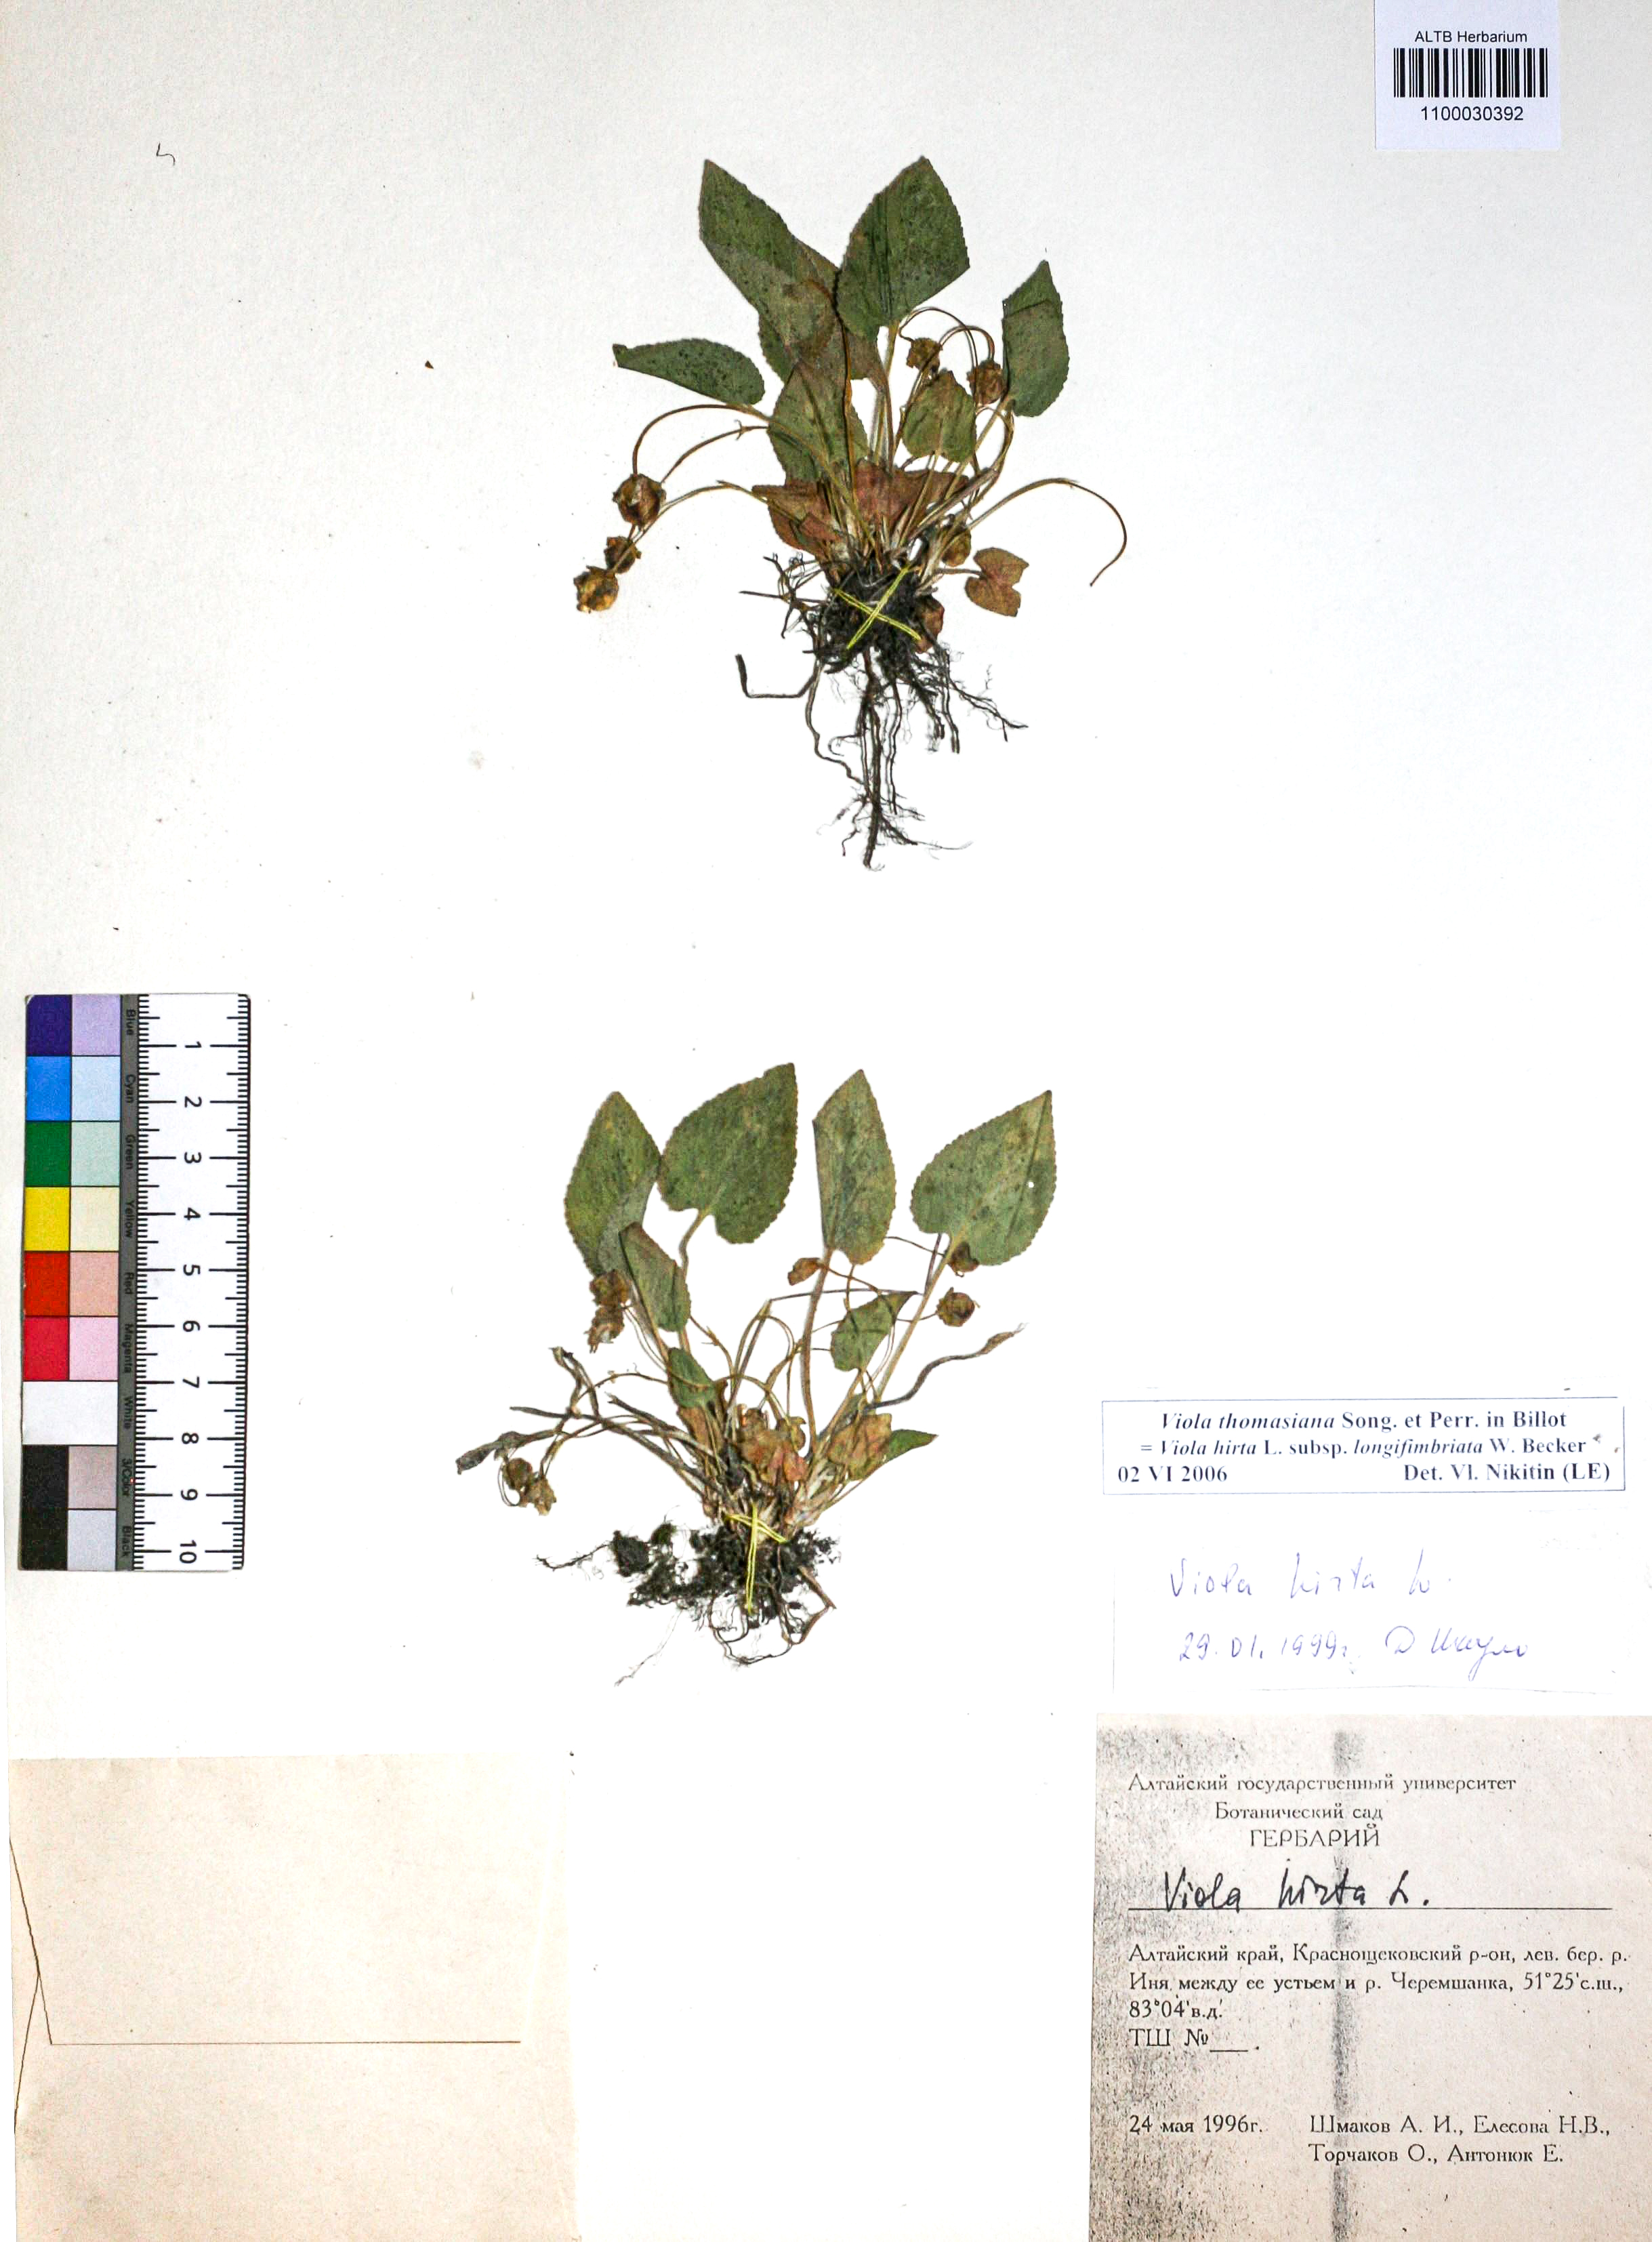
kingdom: Plantae
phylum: Tracheophyta
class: Magnoliopsida
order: Malpighiales
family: Violaceae
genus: Viola
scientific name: Viola thomasiana
